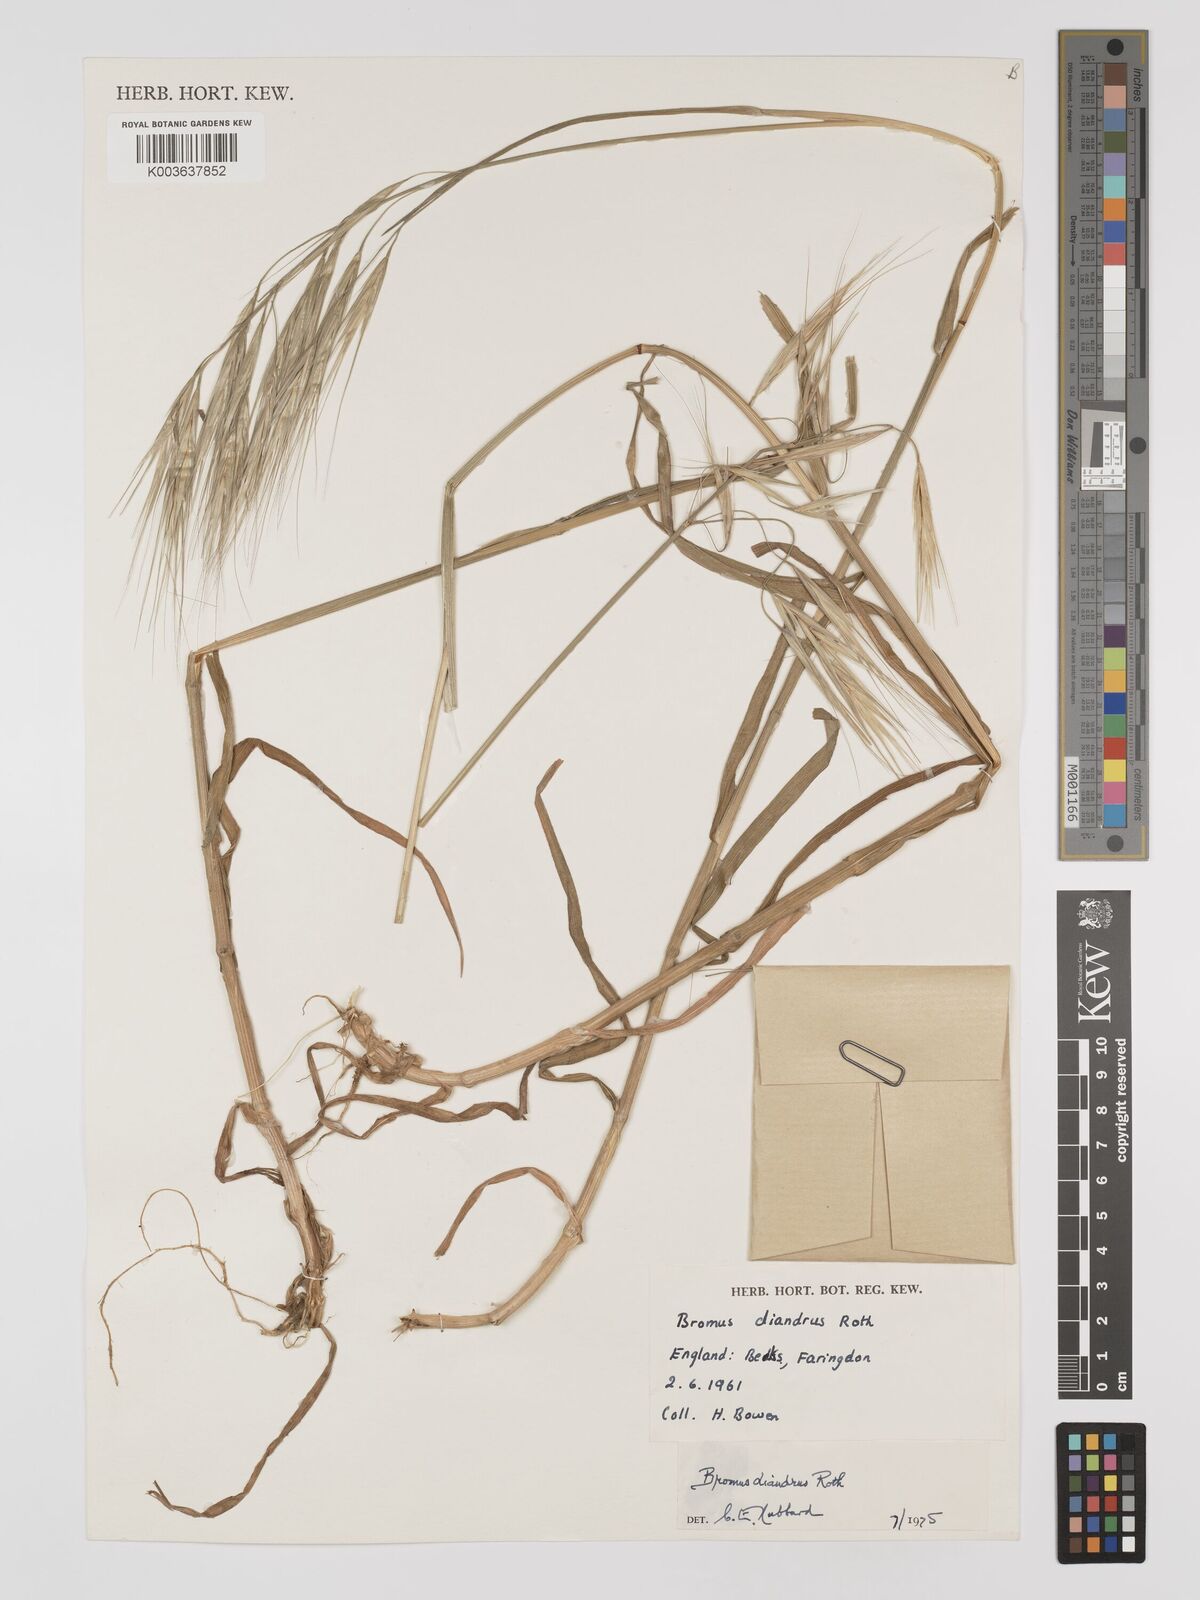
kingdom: Plantae
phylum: Tracheophyta
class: Liliopsida
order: Poales
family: Poaceae
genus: Bromus
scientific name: Bromus
